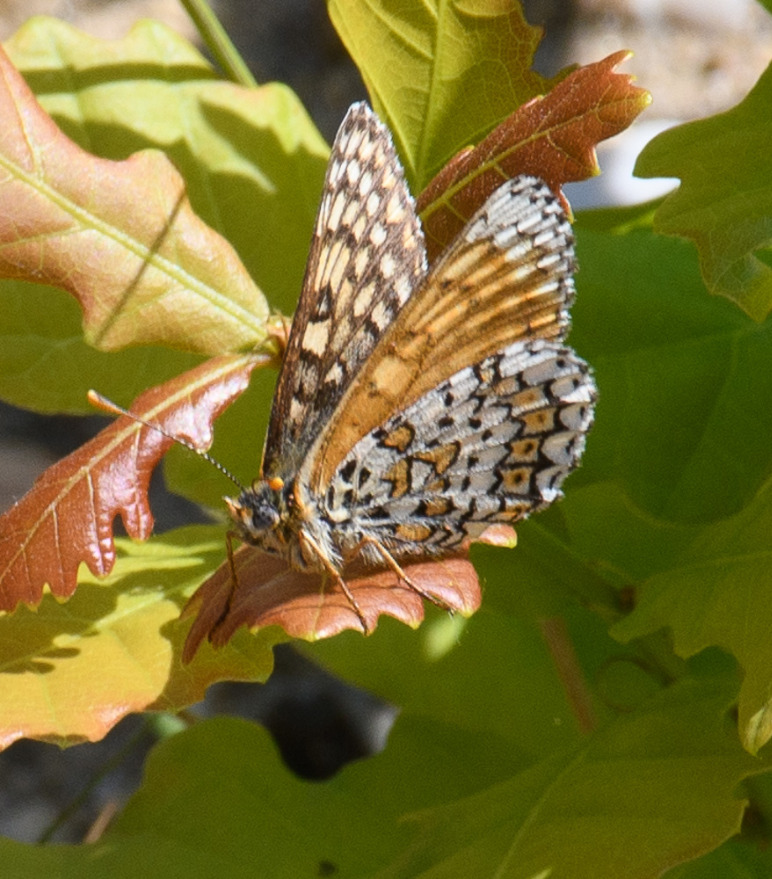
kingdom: Animalia
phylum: Arthropoda
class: Insecta
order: Lepidoptera
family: Nymphalidae
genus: Melitaea
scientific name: Melitaea cinxia
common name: Okkergul pletvinge
